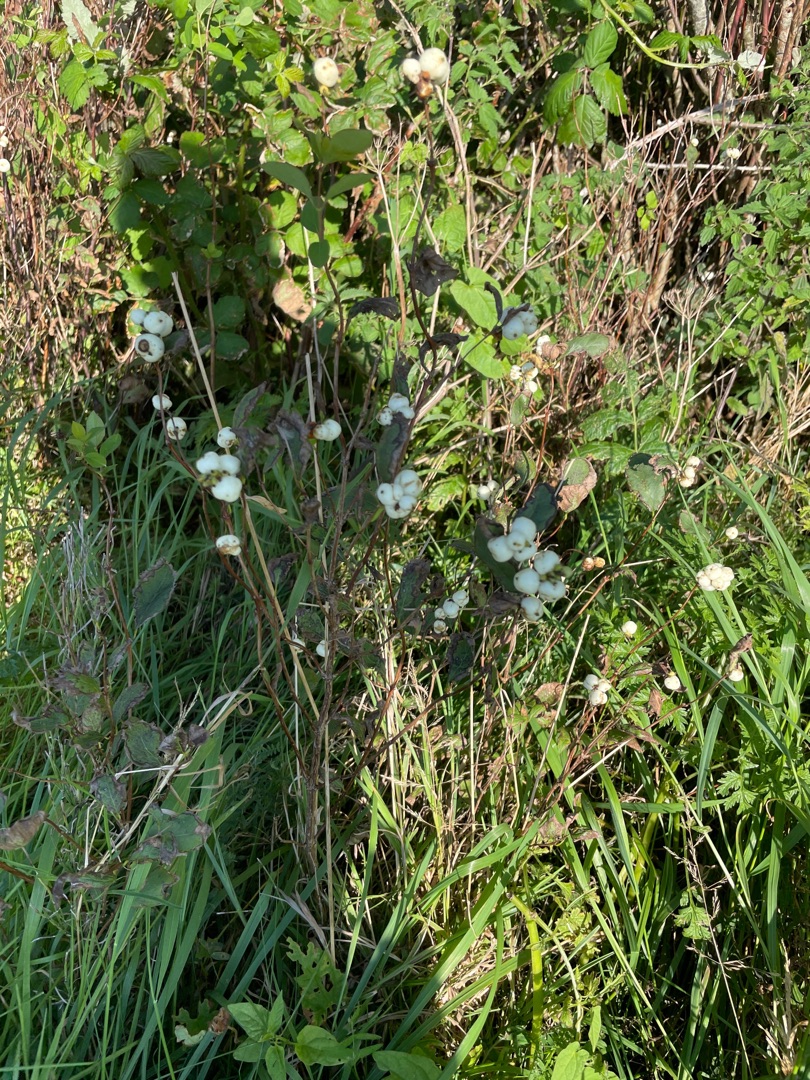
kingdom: Plantae
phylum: Tracheophyta
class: Magnoliopsida
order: Dipsacales
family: Caprifoliaceae
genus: Symphoricarpos
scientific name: Symphoricarpos albus
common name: Almindelig snebær
